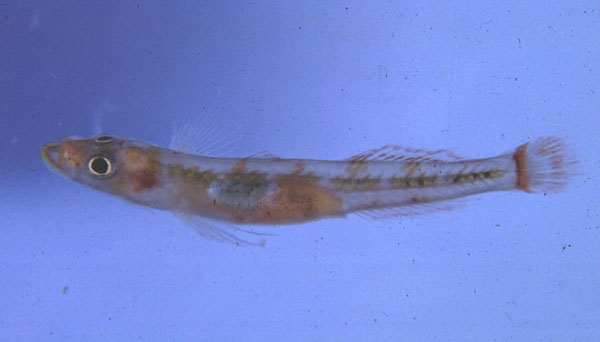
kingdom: Animalia
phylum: Chordata
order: Perciformes
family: Xenisthmidae
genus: Rotuma
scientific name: Rotuma lewisi
